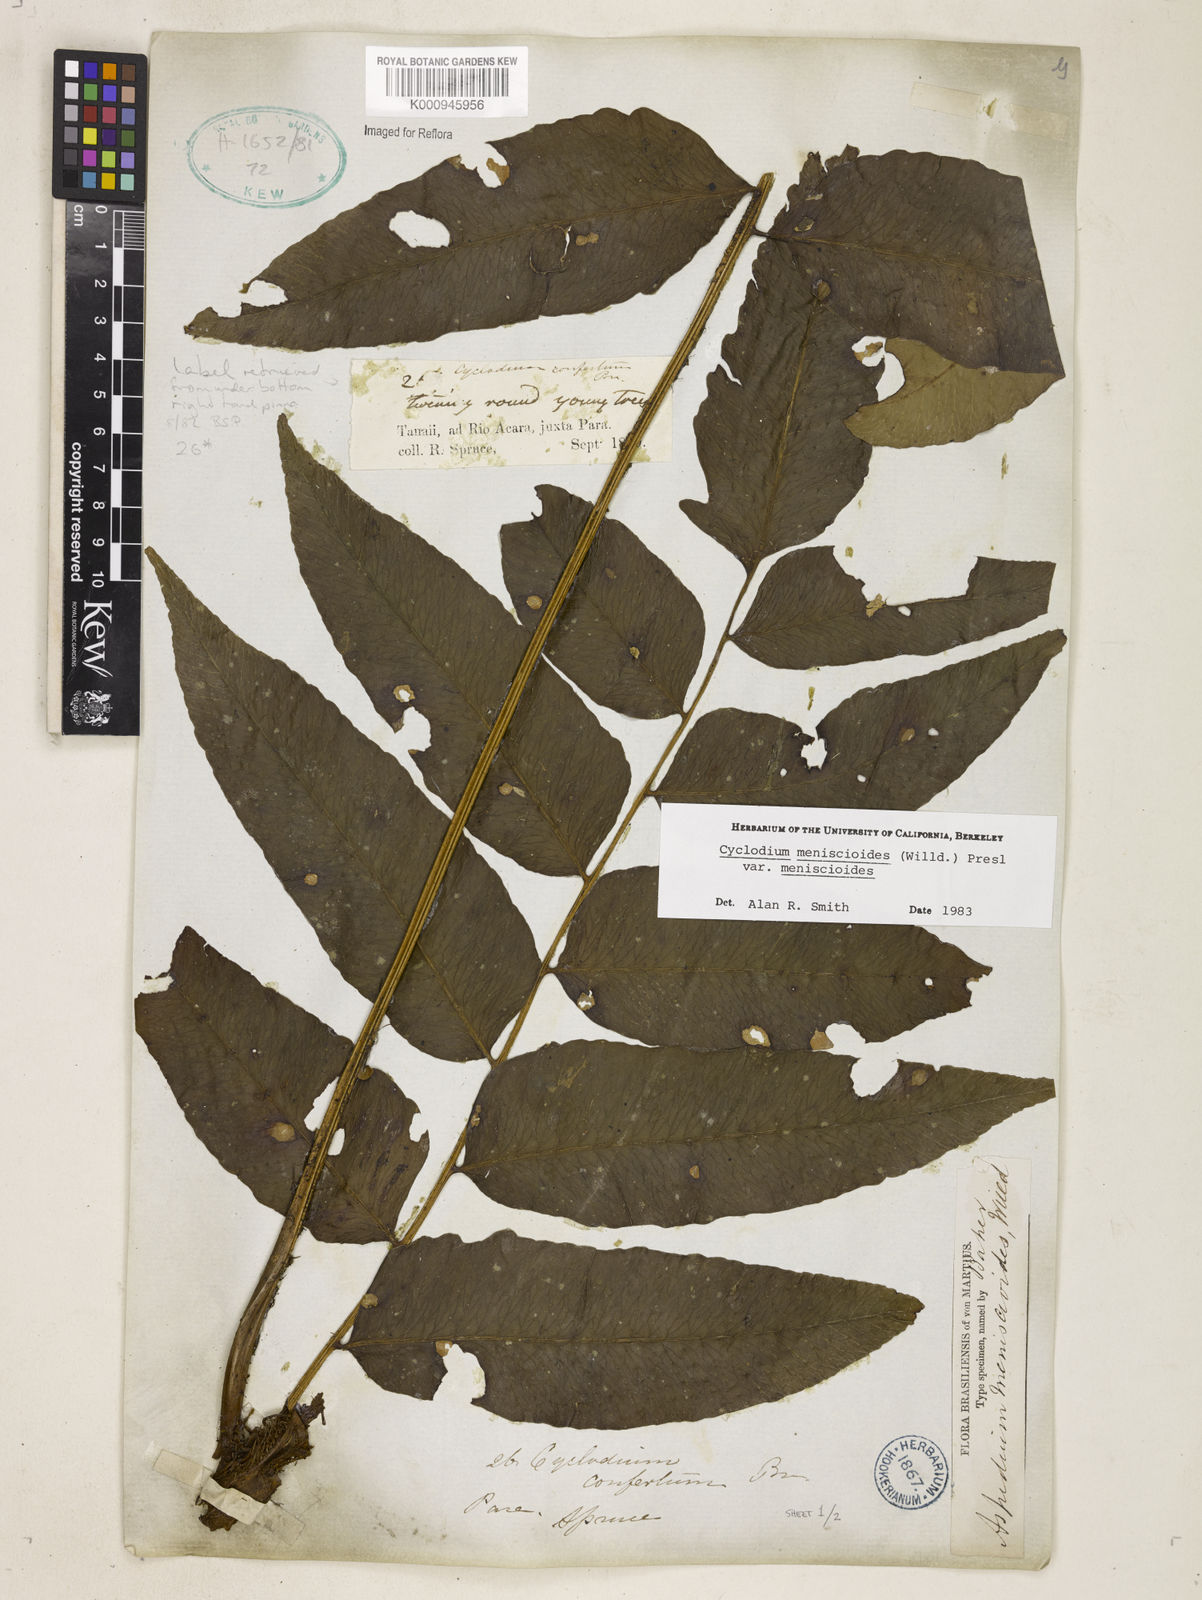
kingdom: Plantae
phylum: Tracheophyta
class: Polypodiopsida
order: Polypodiales
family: Dryopteridaceae
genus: Cyclodium
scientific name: Cyclodium meniscioides
